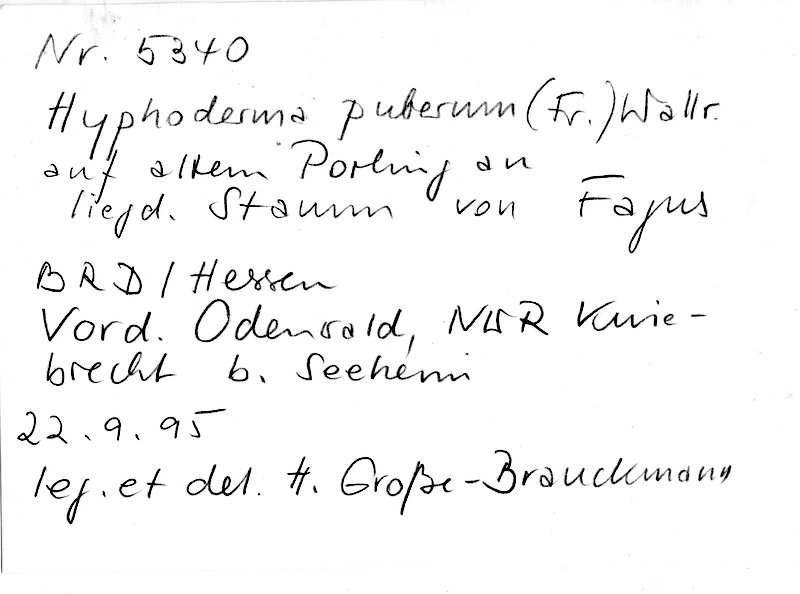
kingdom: Plantae
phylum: Tracheophyta
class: Magnoliopsida
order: Fagales
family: Fagaceae
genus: Fagus
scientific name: Fagus sylvatica
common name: Beech
